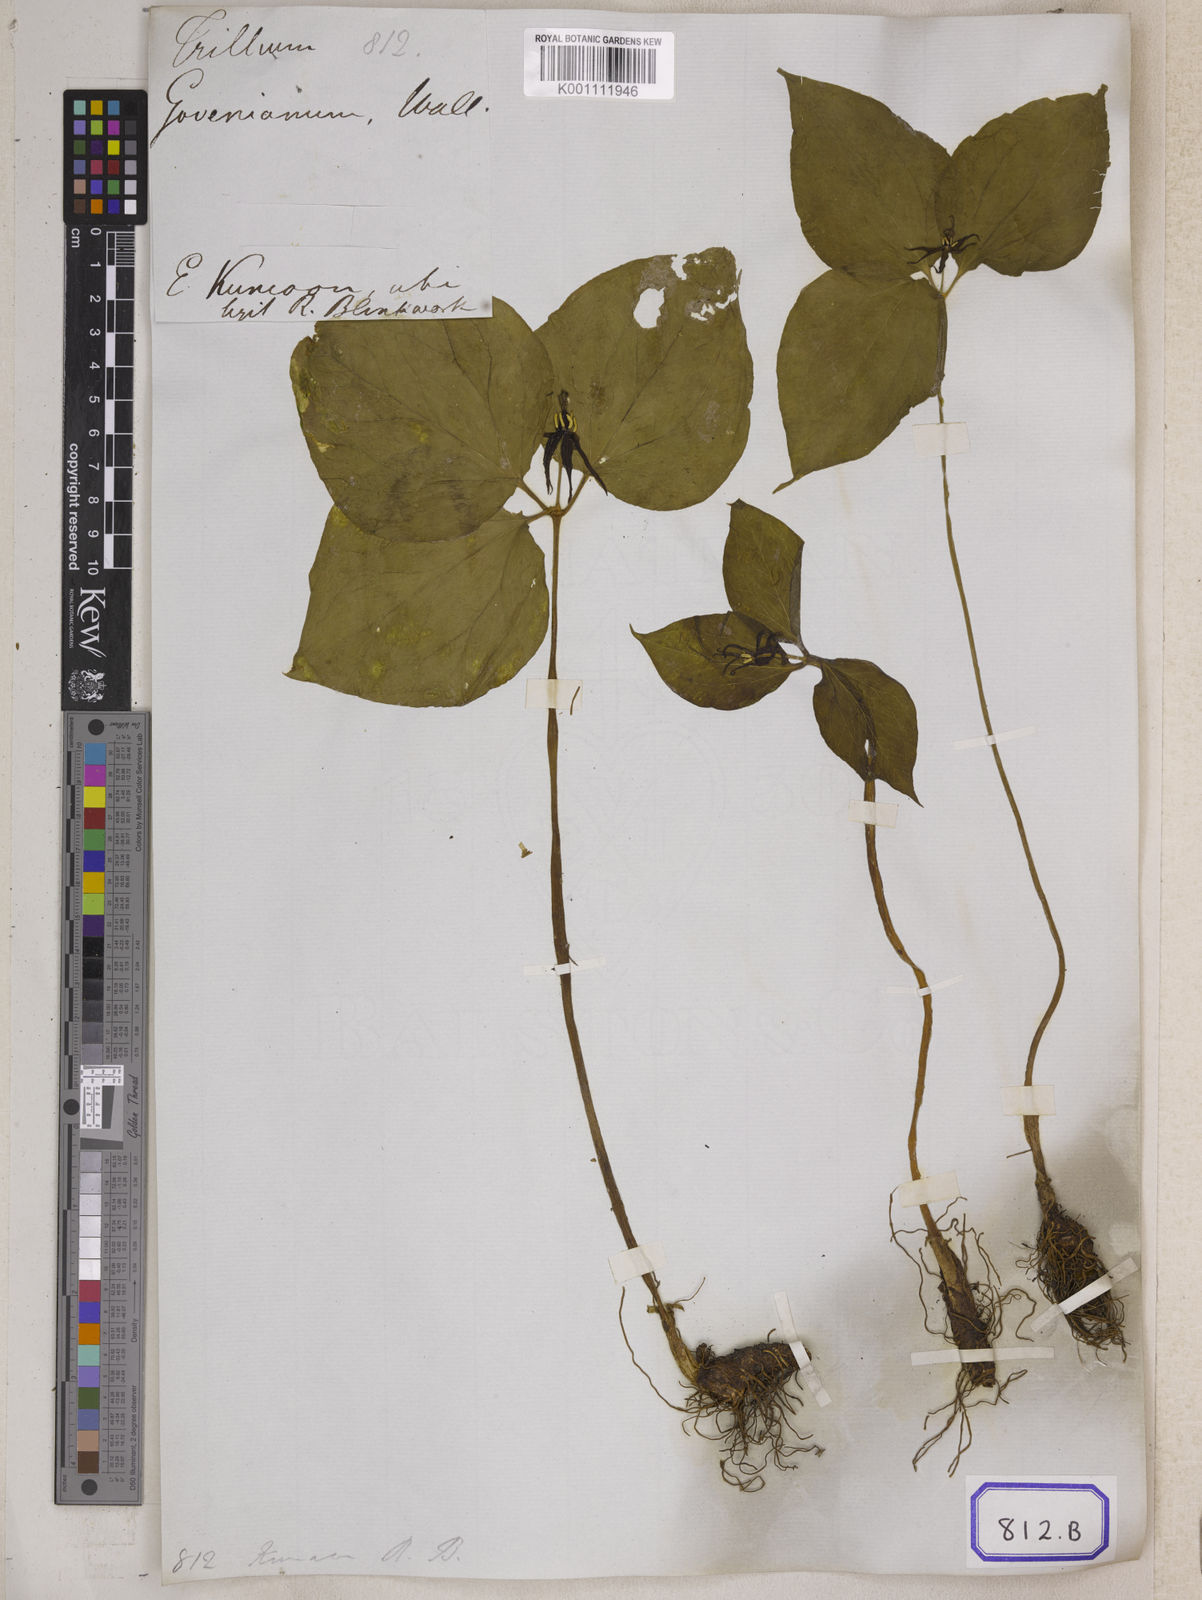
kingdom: Plantae
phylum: Tracheophyta
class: Liliopsida
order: Liliales
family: Melanthiaceae
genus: Trillium
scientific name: Trillium
